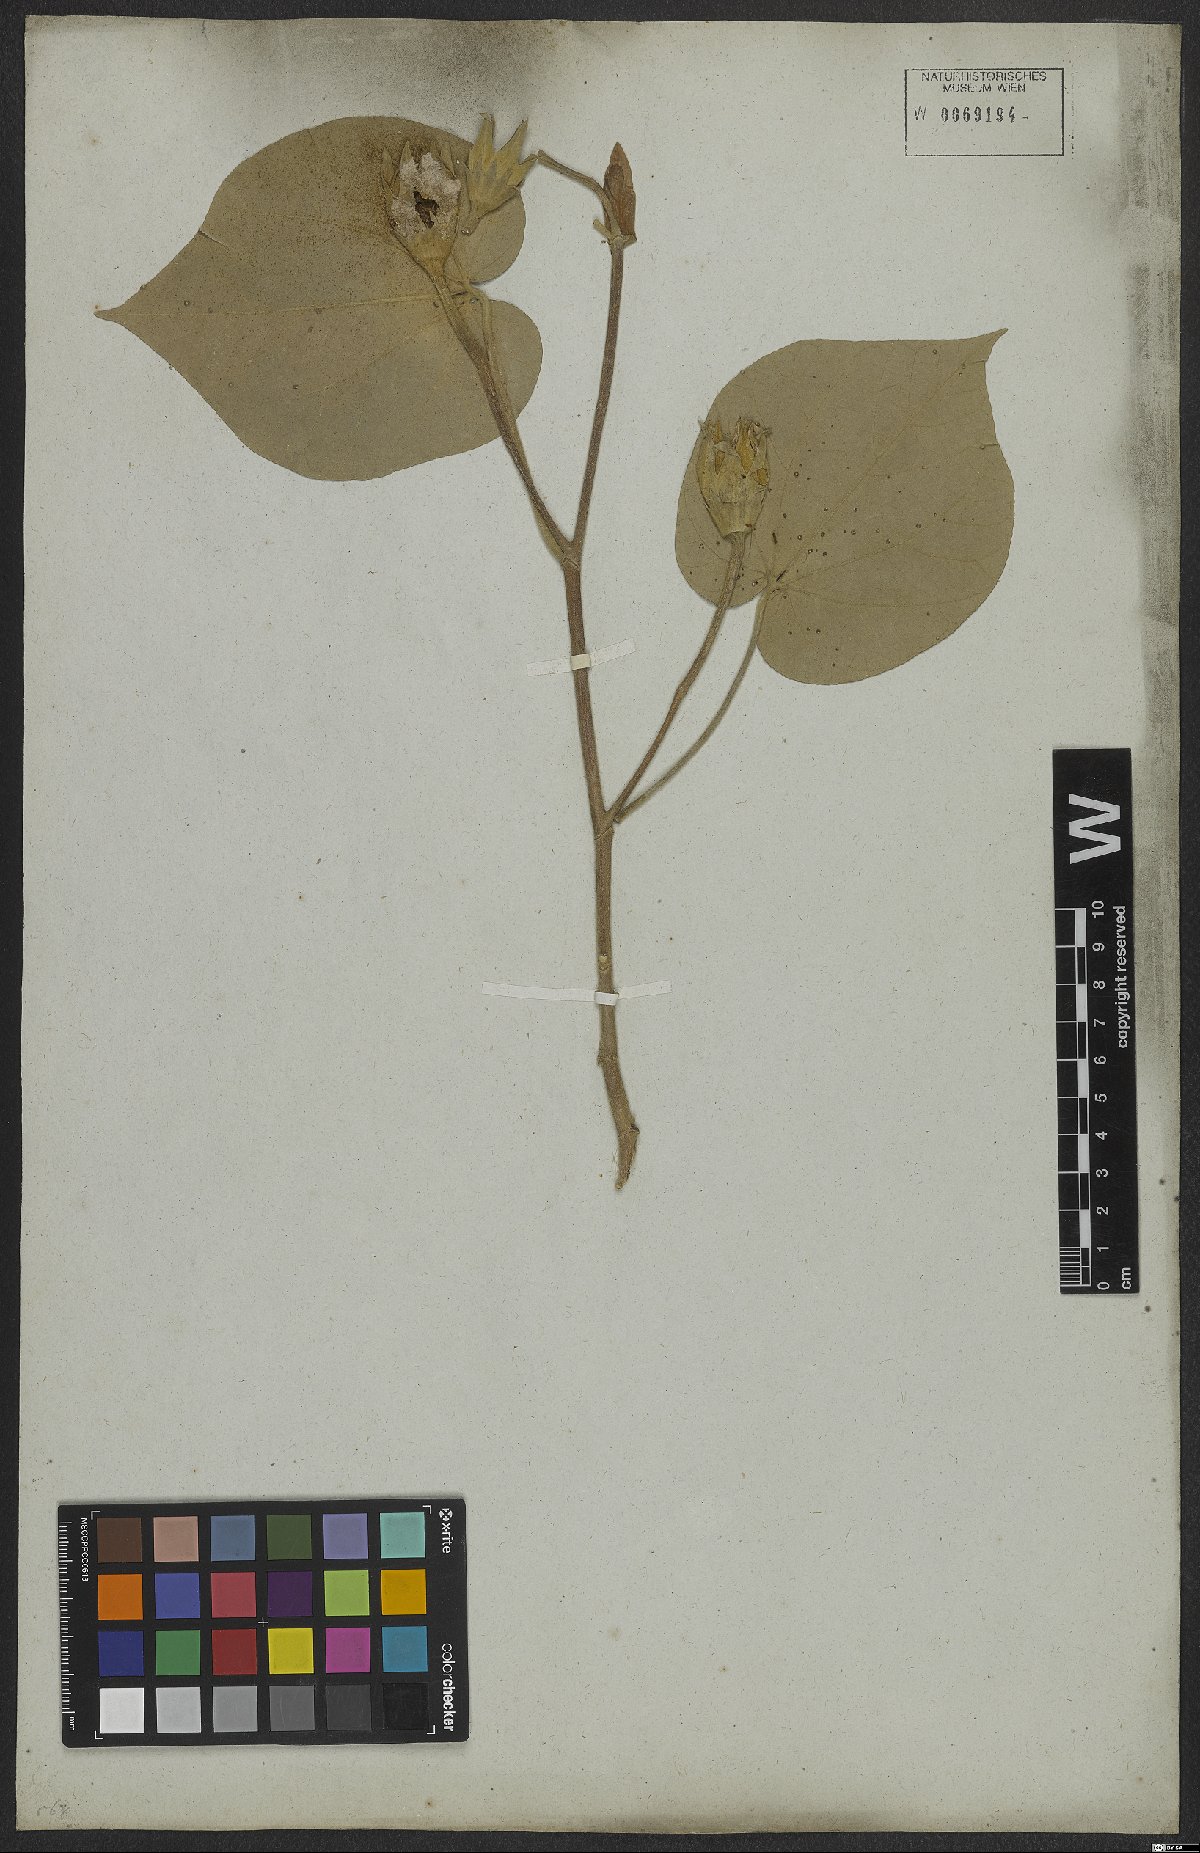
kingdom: Plantae
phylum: Tracheophyta
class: Magnoliopsida
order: Malvales
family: Malvaceae
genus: Talipariti
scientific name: Talipariti tiliaceum
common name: Sea hibiscus
